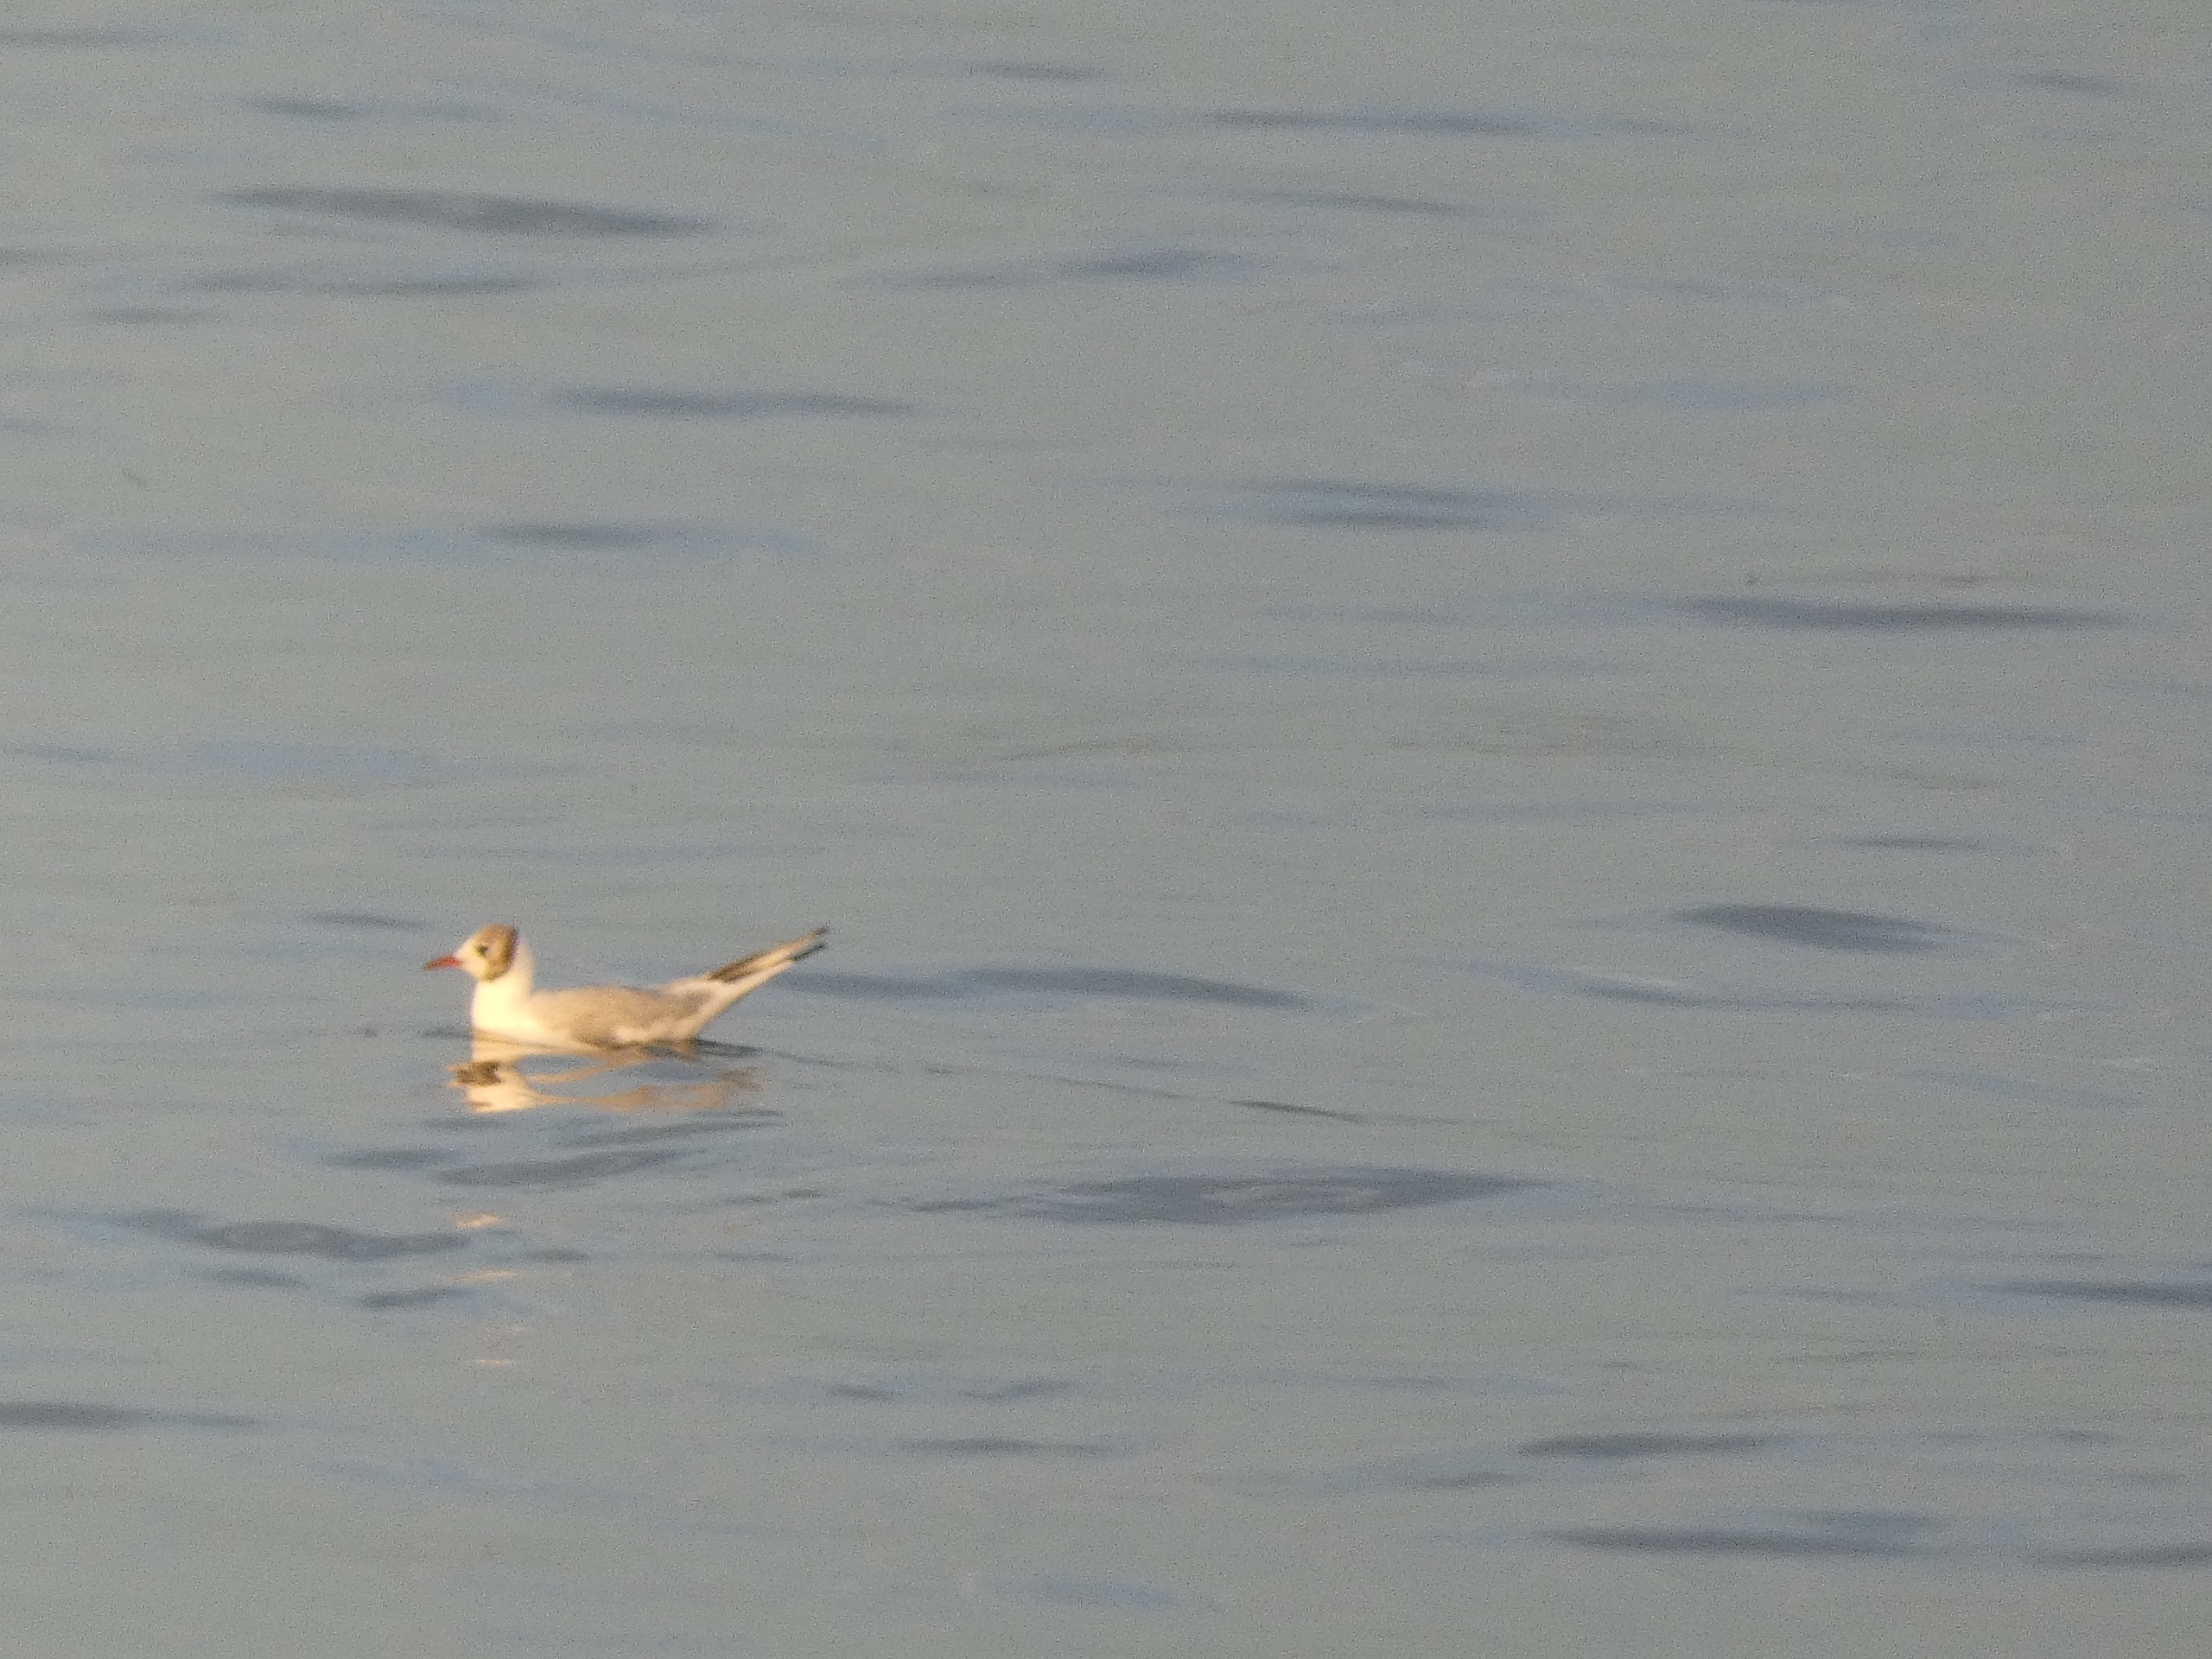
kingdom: Animalia
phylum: Chordata
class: Aves
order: Charadriiformes
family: Laridae
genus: Chroicocephalus
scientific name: Chroicocephalus ridibundus
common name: Hættemåge
